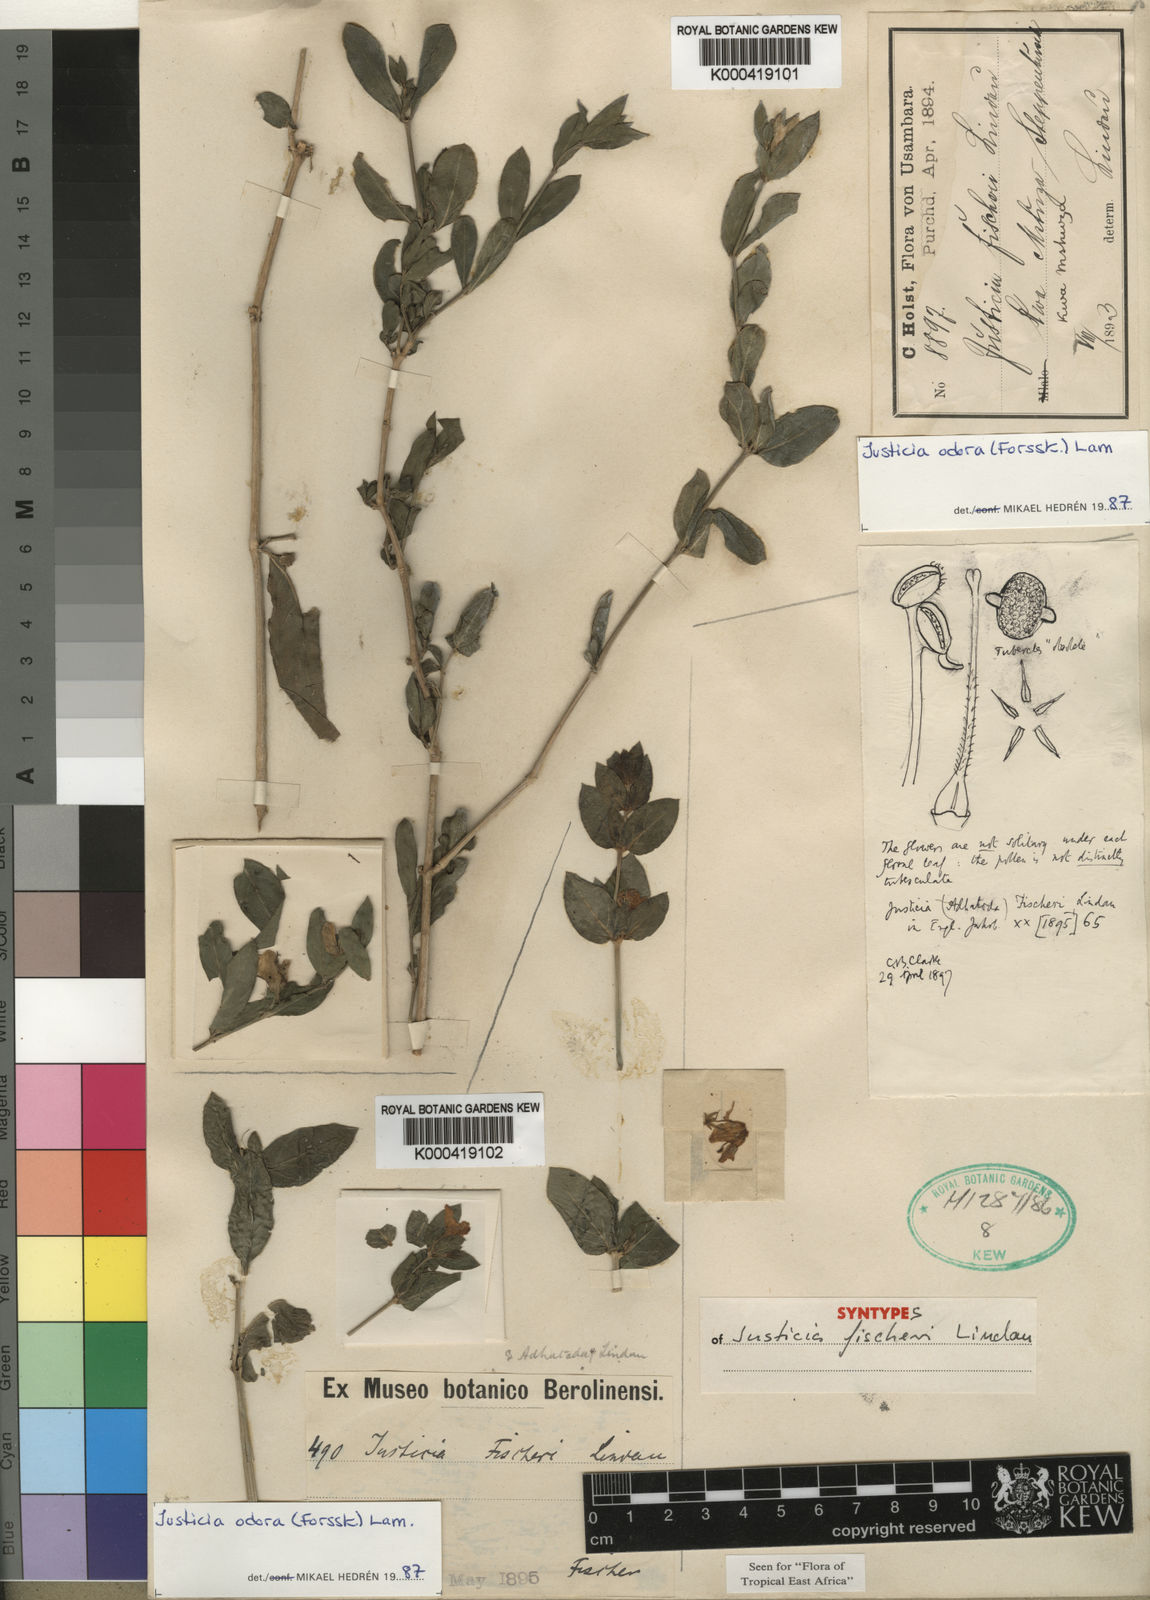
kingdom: Plantae
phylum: Tracheophyta
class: Magnoliopsida
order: Lamiales
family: Acanthaceae
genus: Justicia
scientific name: Justicia
